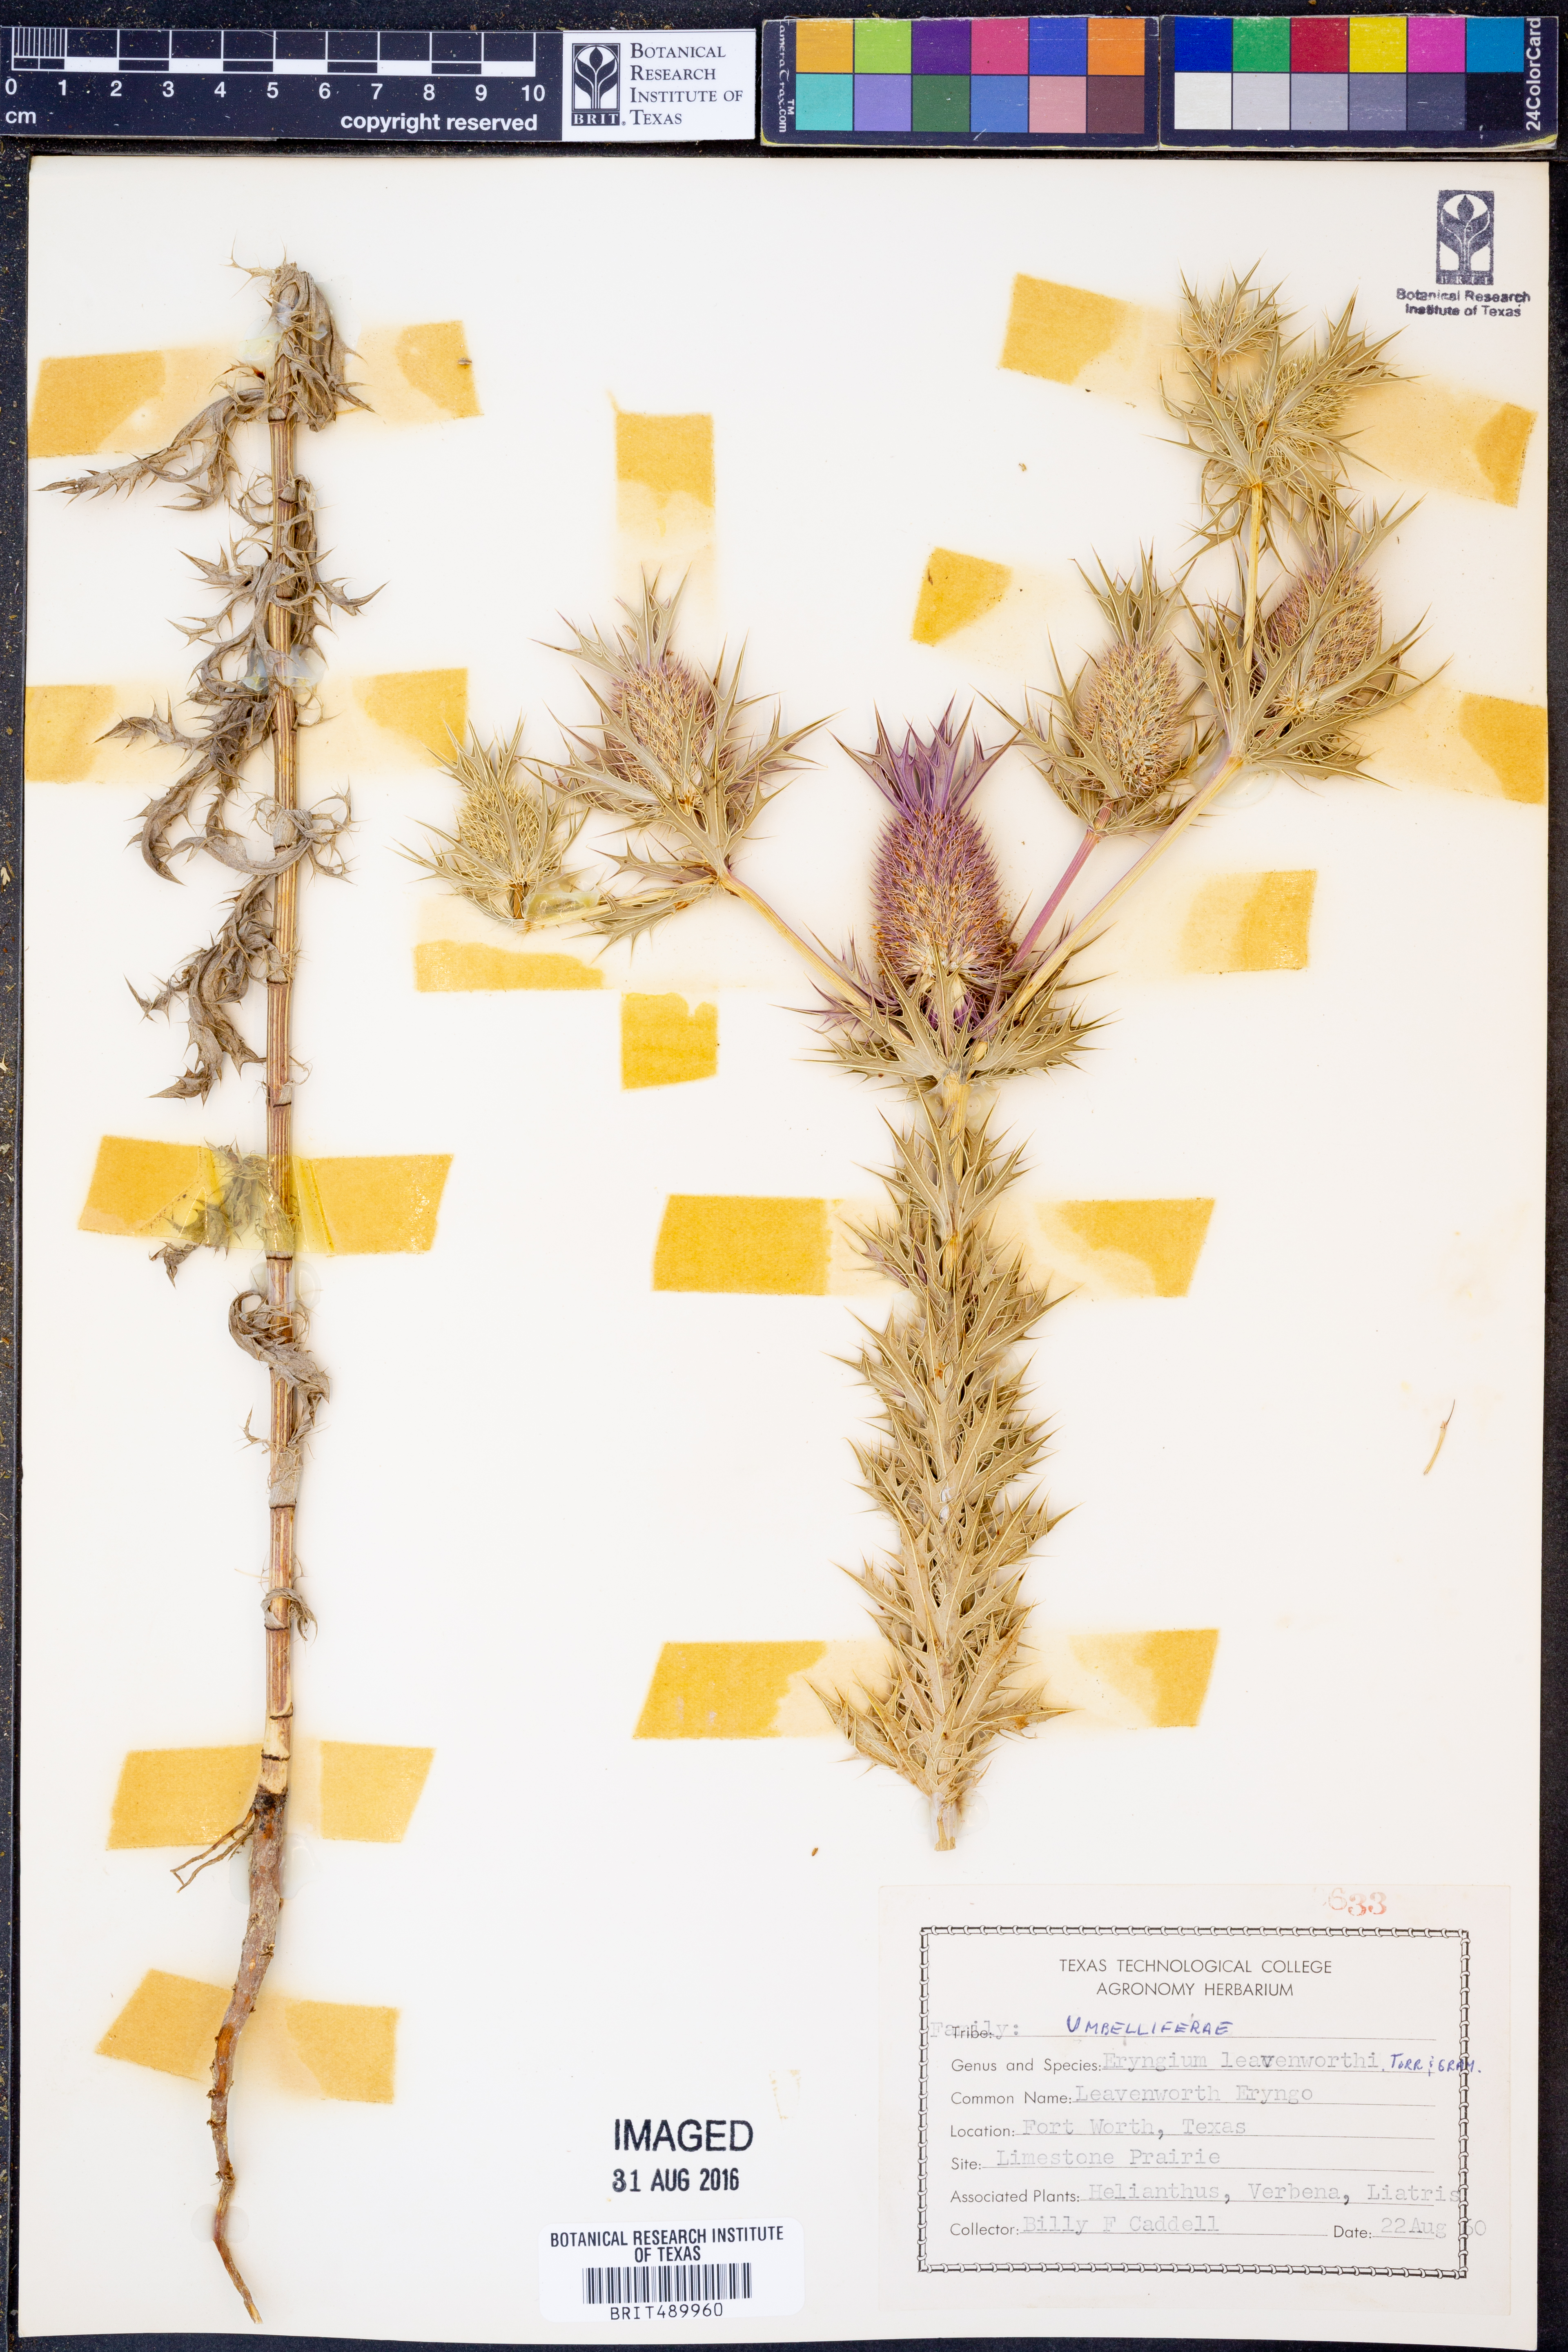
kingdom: Plantae
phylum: Tracheophyta
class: Magnoliopsida
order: Apiales
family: Apiaceae
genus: Eryngium
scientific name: Eryngium leavenworthii
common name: Leavenworth's eryngo
